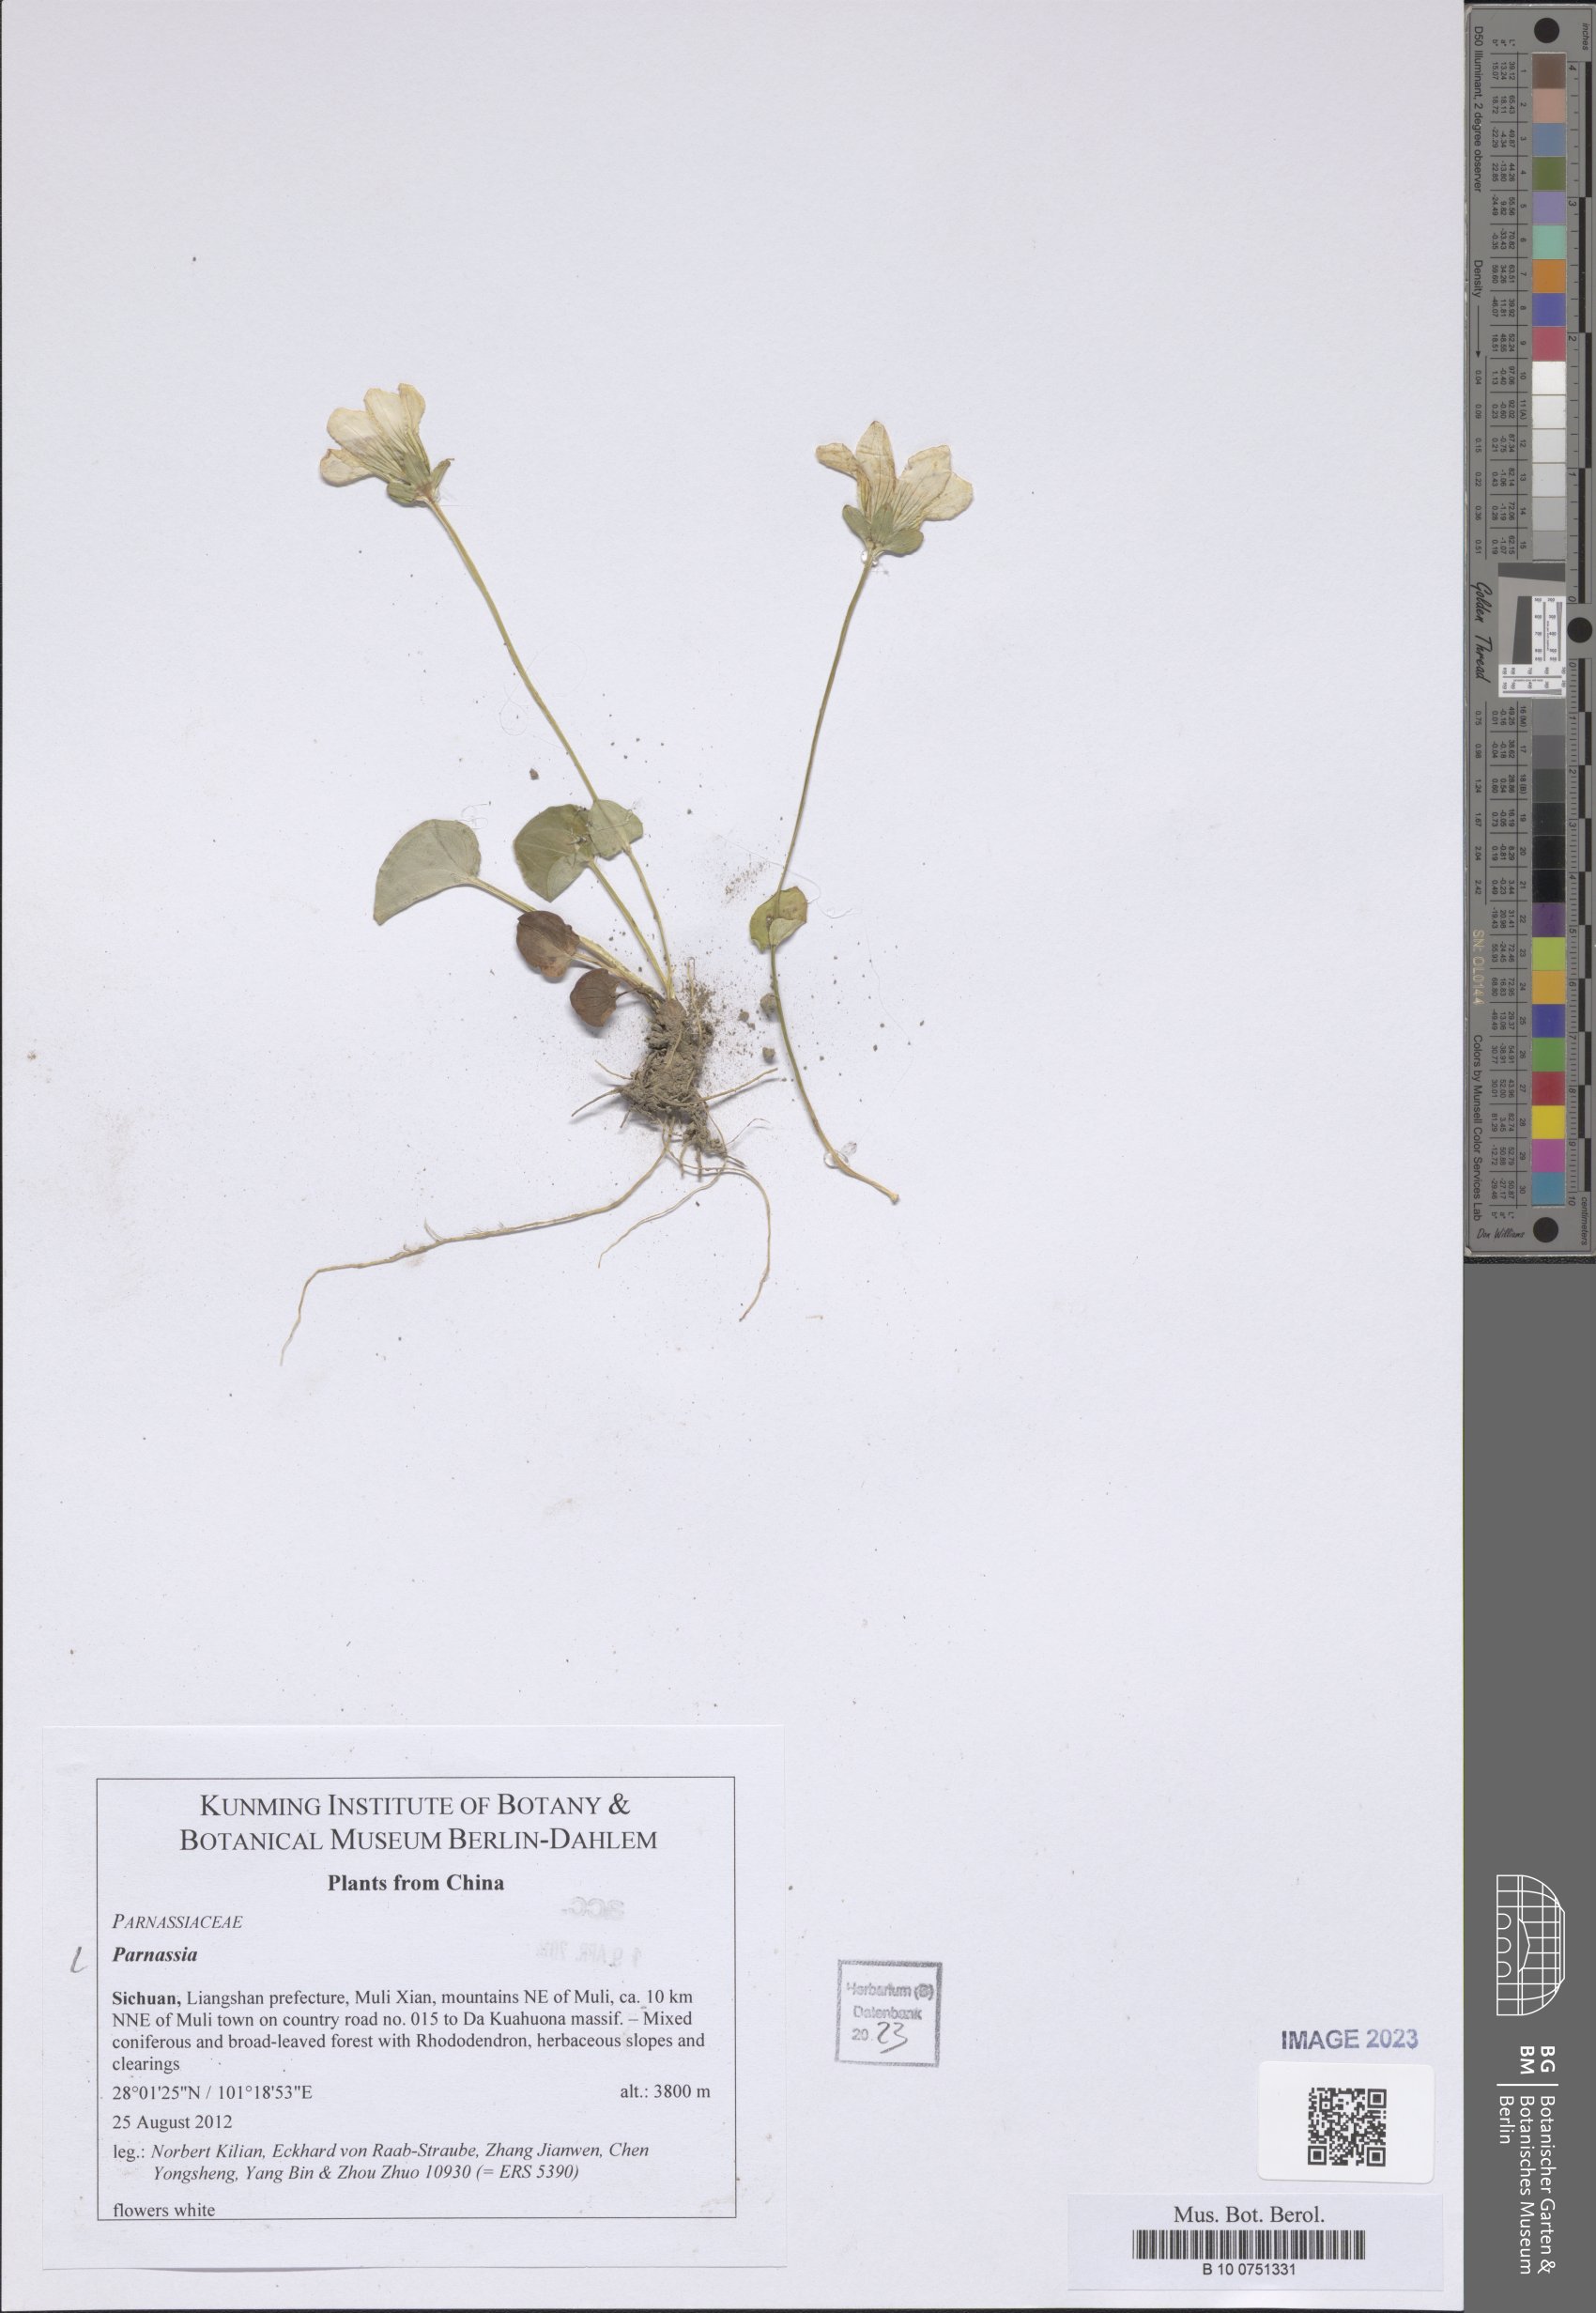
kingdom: Plantae
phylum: Tracheophyta
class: Magnoliopsida
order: Celastrales
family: Parnassiaceae
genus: Parnassia
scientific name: Parnassia
